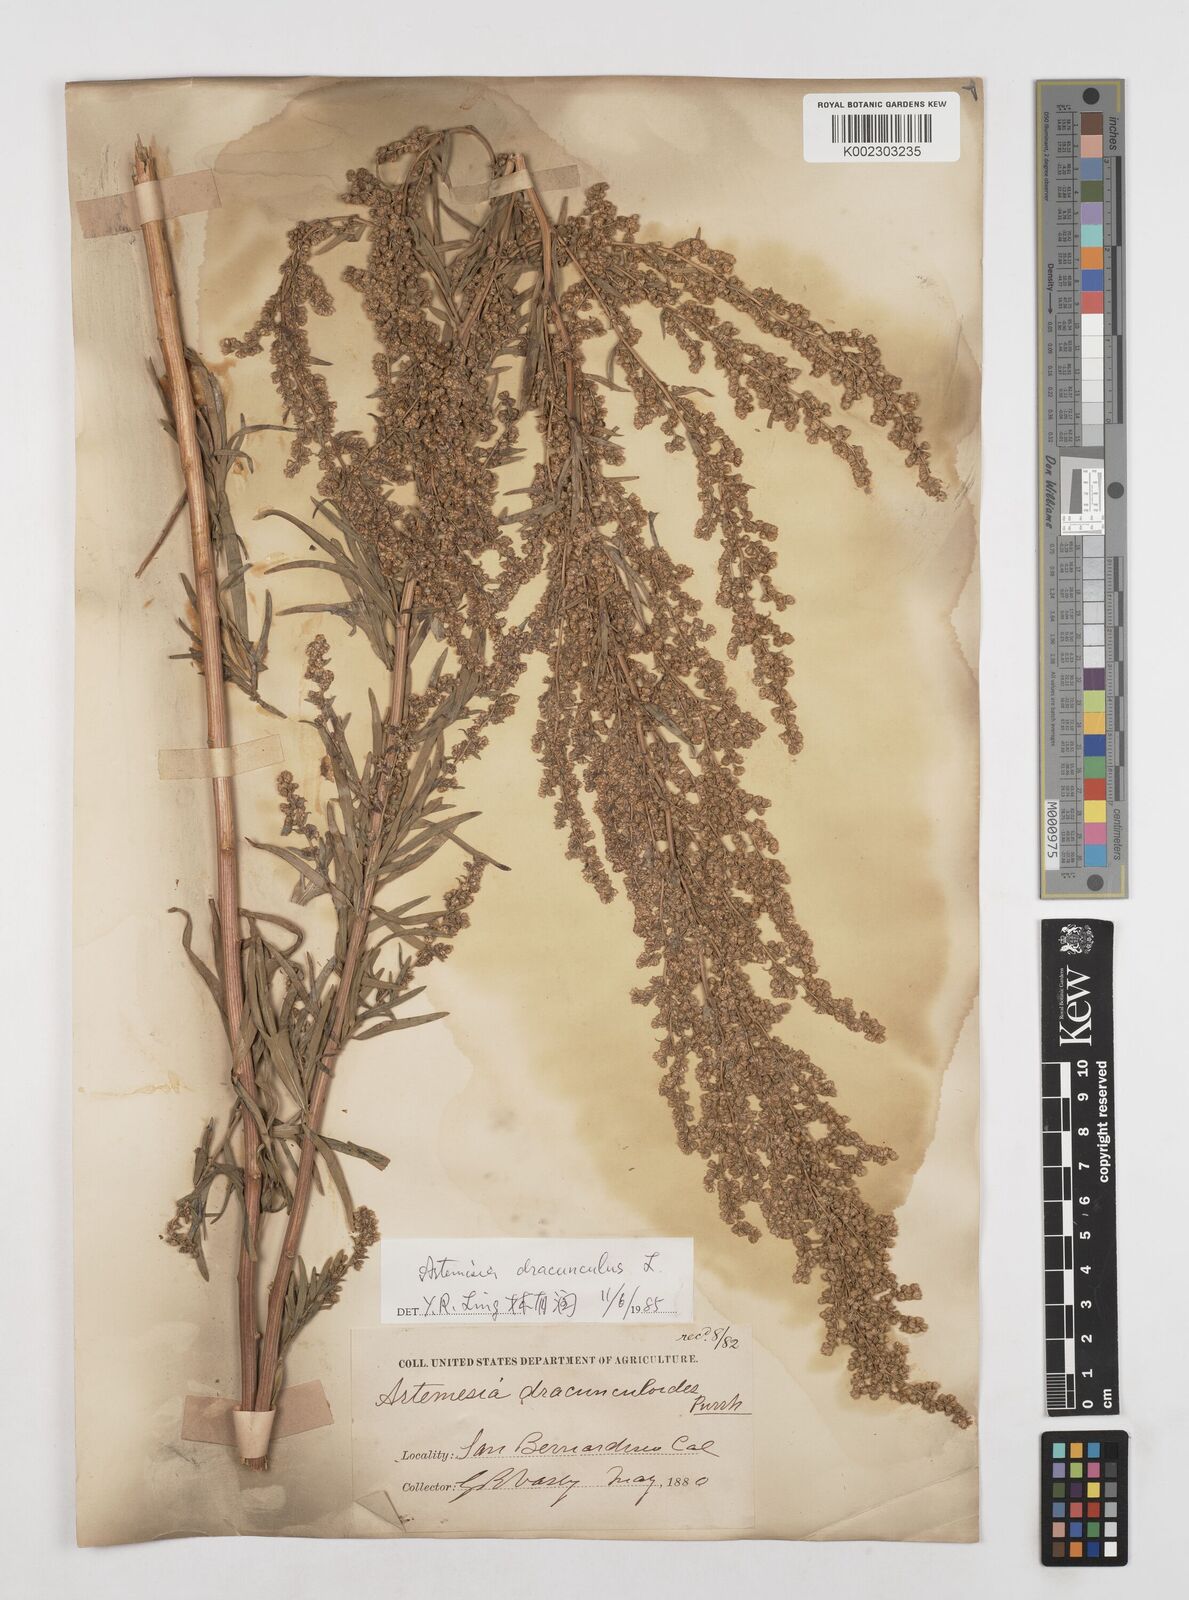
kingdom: Plantae
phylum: Tracheophyta
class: Magnoliopsida
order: Asterales
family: Asteraceae
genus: Artemisia
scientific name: Artemisia dracunculus
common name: Tarragon
